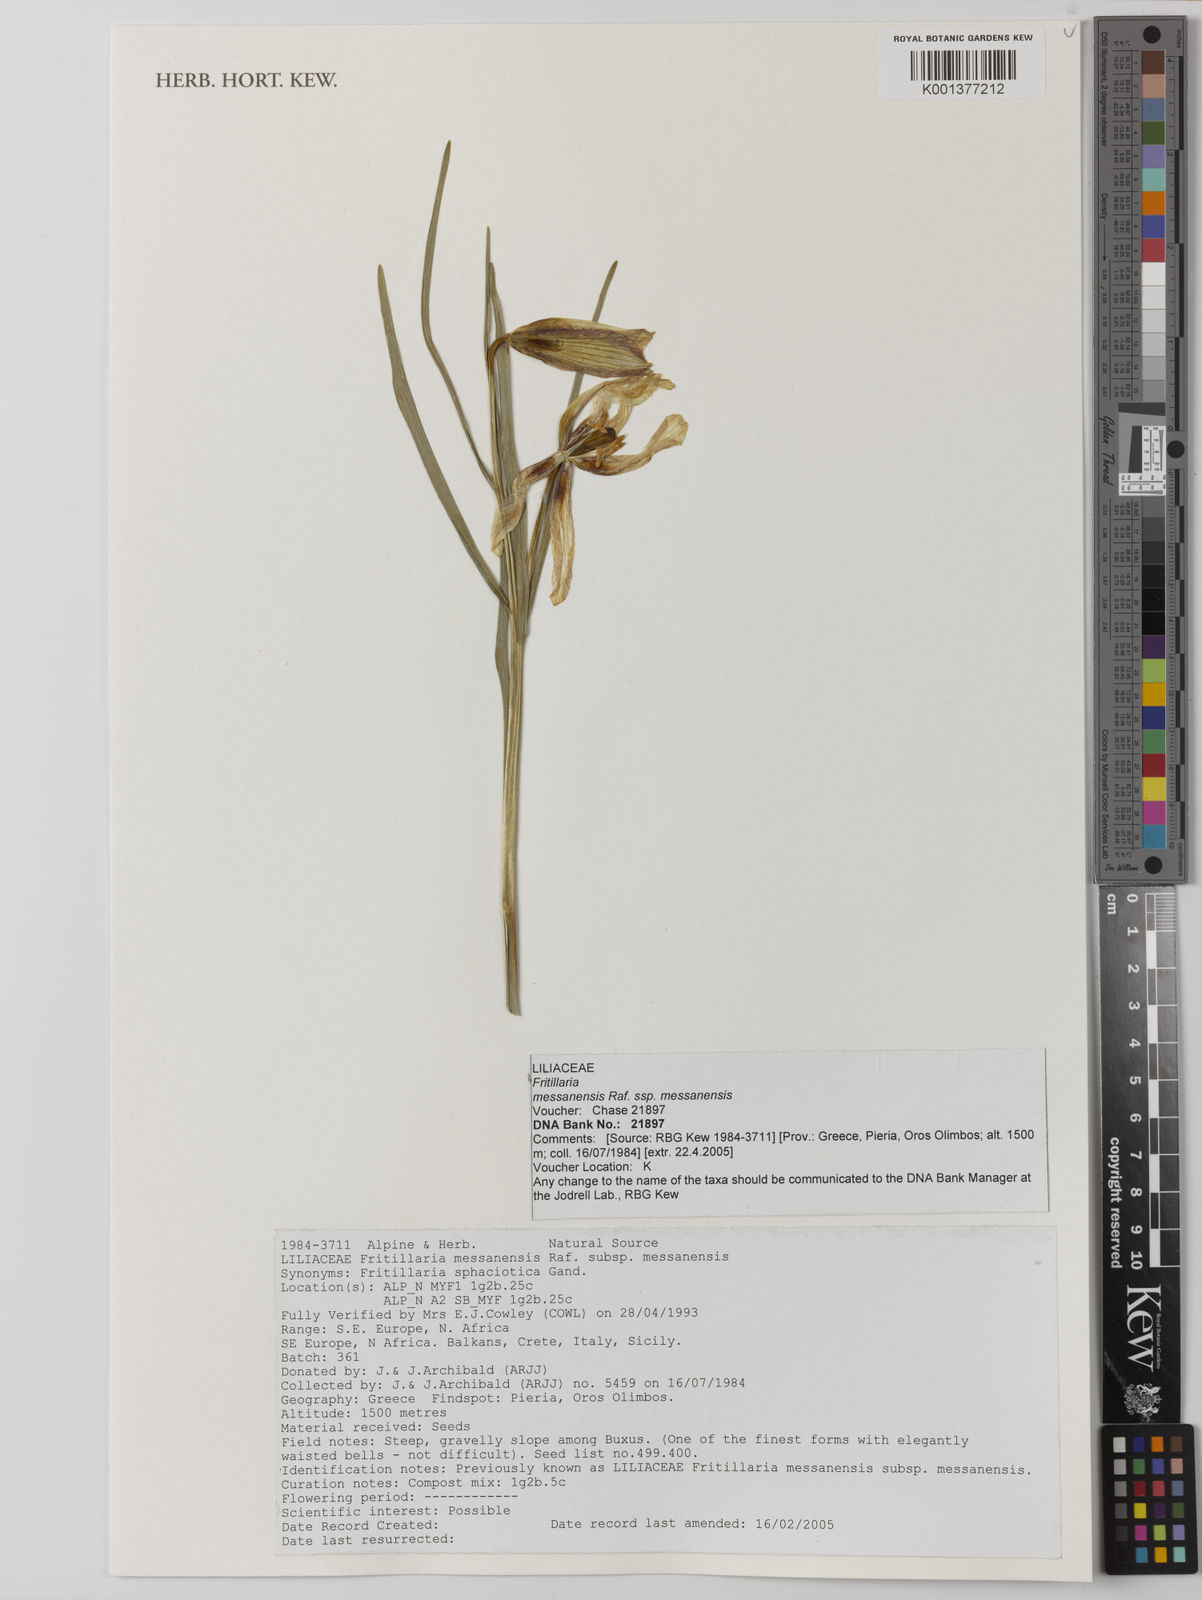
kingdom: Plantae
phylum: Tracheophyta
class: Liliopsida
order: Liliales
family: Liliaceae
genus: Fritillaria
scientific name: Fritillaria messanensis
